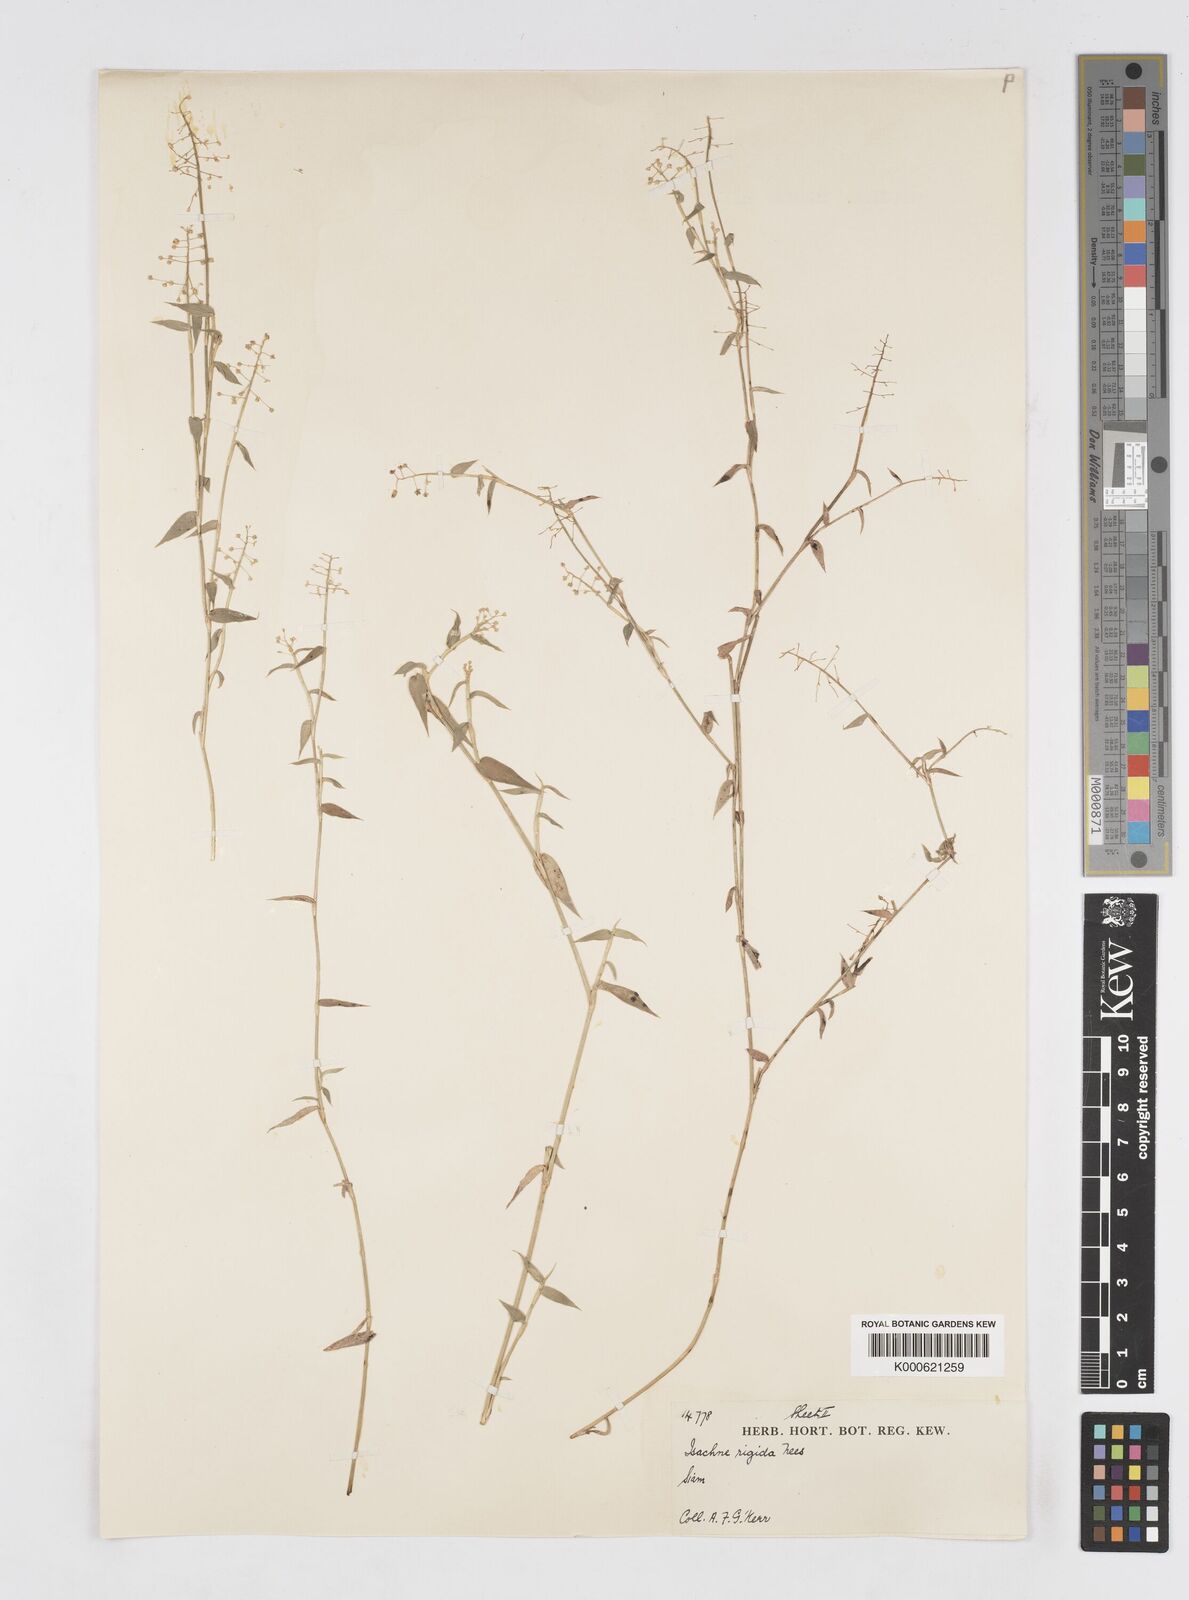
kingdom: Plantae
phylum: Tracheophyta
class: Liliopsida
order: Poales
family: Poaceae
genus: Isachne
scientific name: Isachne confusa
